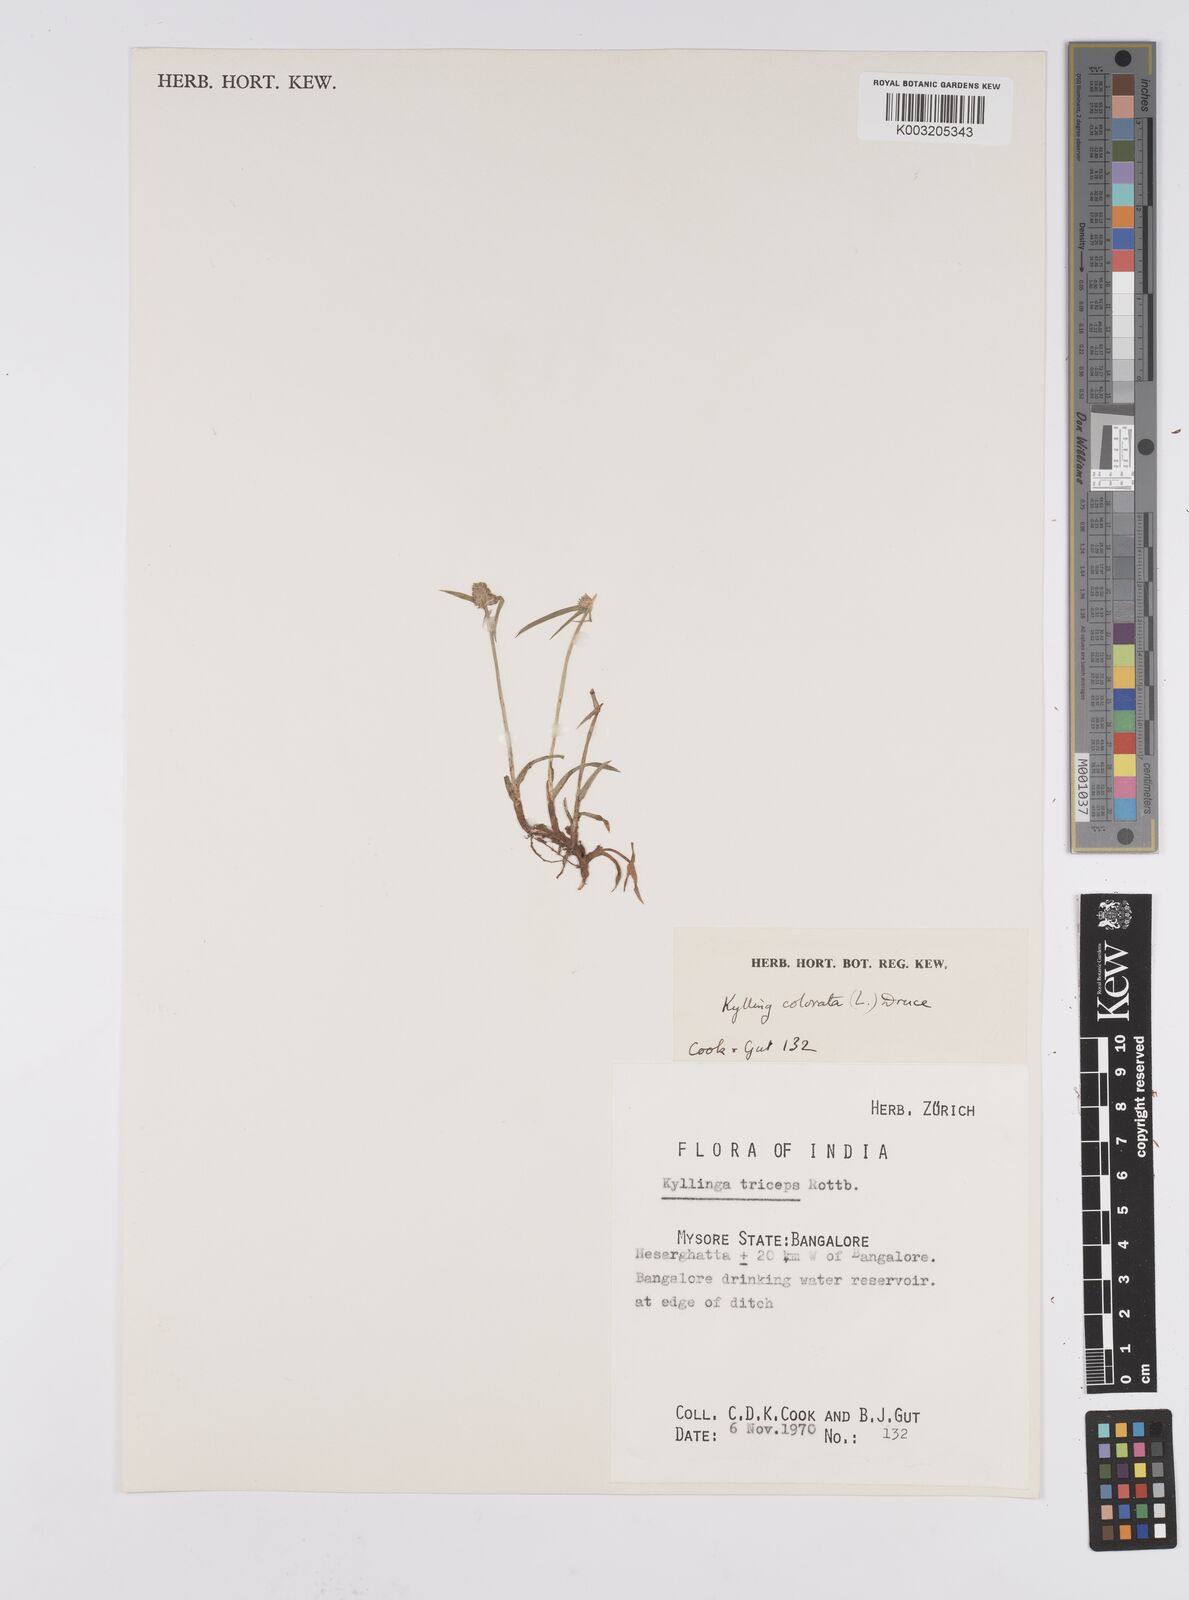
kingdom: Plantae
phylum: Tracheophyta
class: Liliopsida
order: Poales
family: Cyperaceae
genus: Cyperus
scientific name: Cyperus brevifolius
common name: Globe kyllinga
